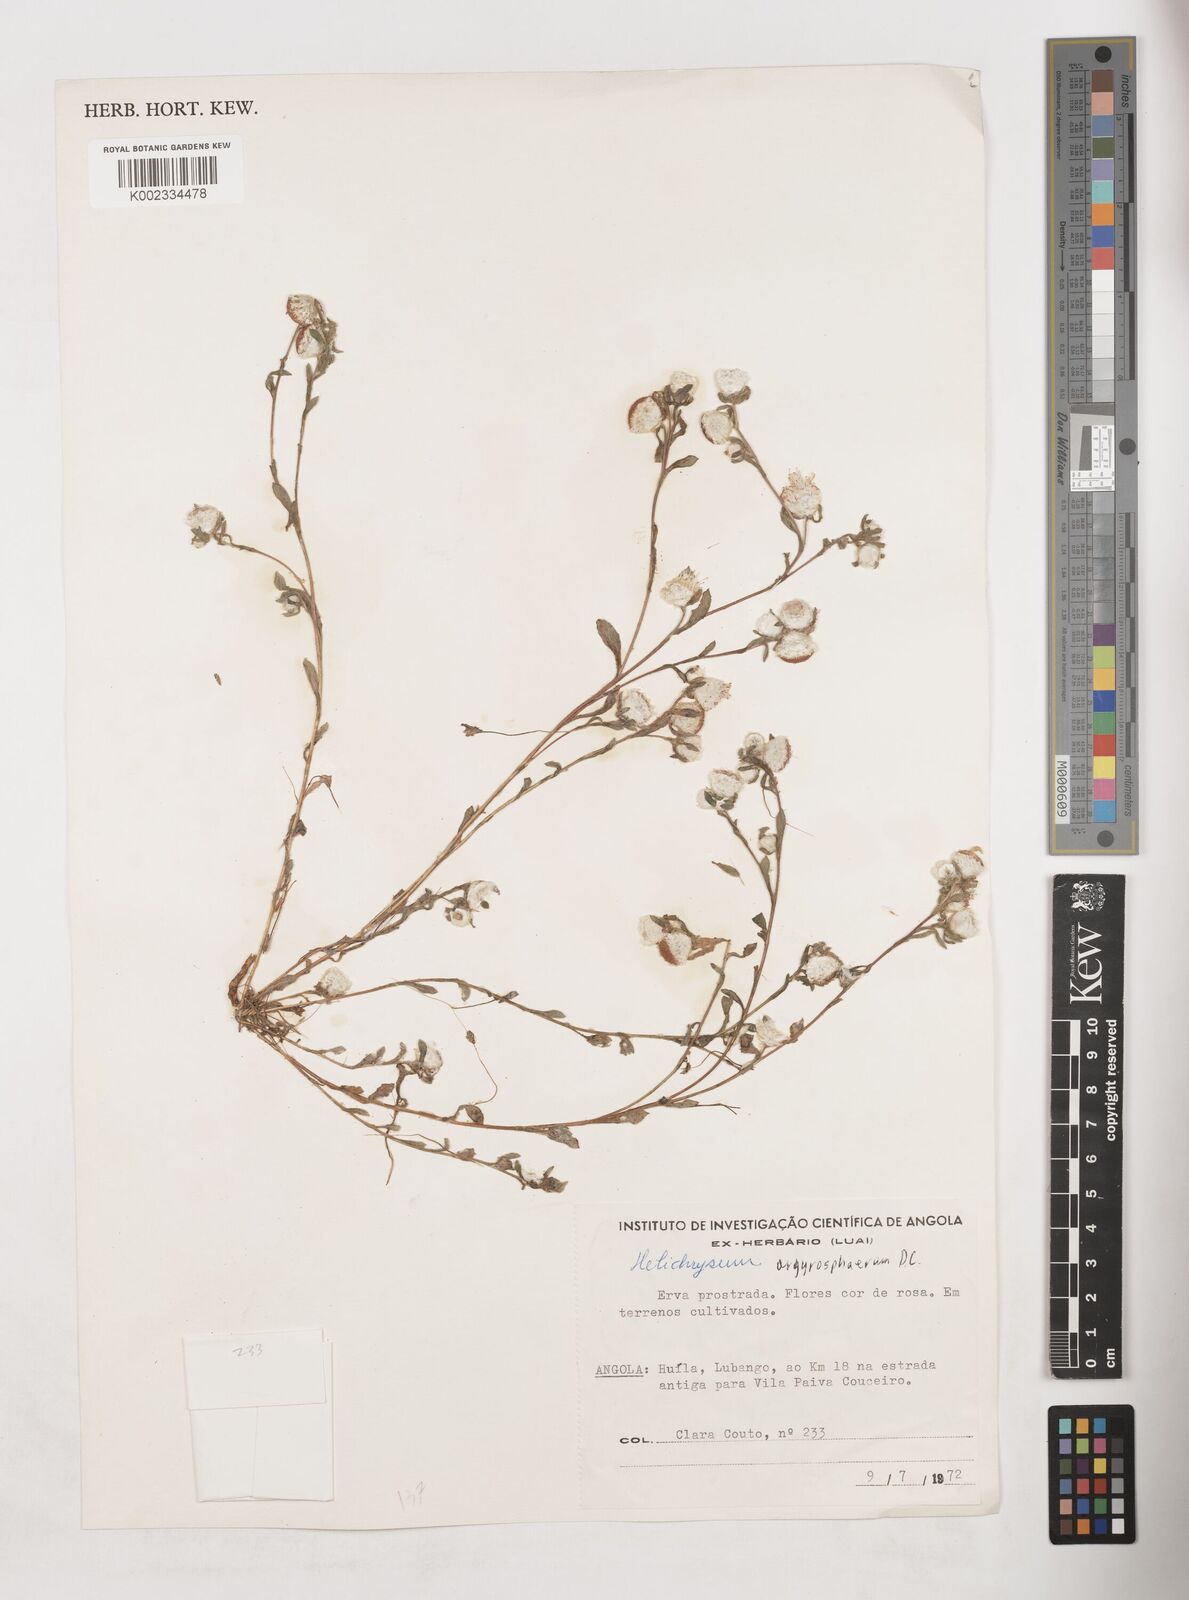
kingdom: Plantae
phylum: Tracheophyta
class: Magnoliopsida
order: Asterales
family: Asteraceae
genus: Helichrysum
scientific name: Helichrysum argyrosphaerum
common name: Wild everlasting
